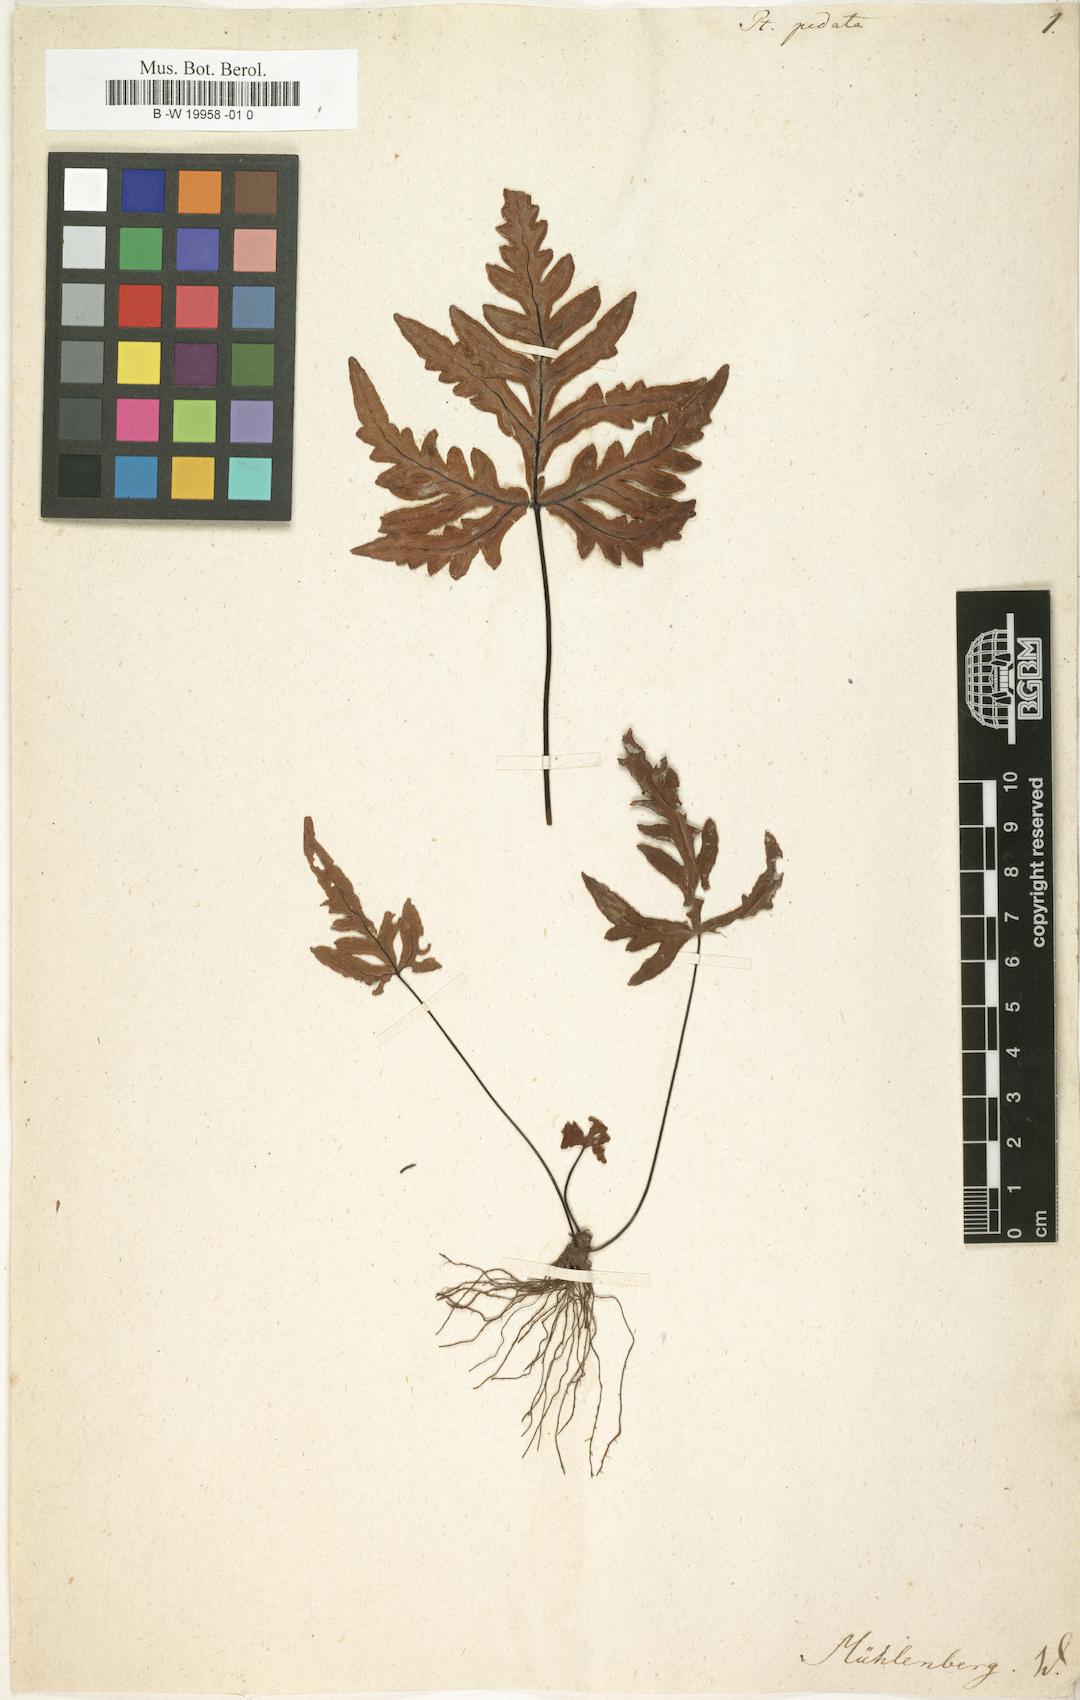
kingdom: Plantae
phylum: Tracheophyta
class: Polypodiopsida
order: Polypodiales
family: Pteridaceae
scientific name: Pteridaceae
